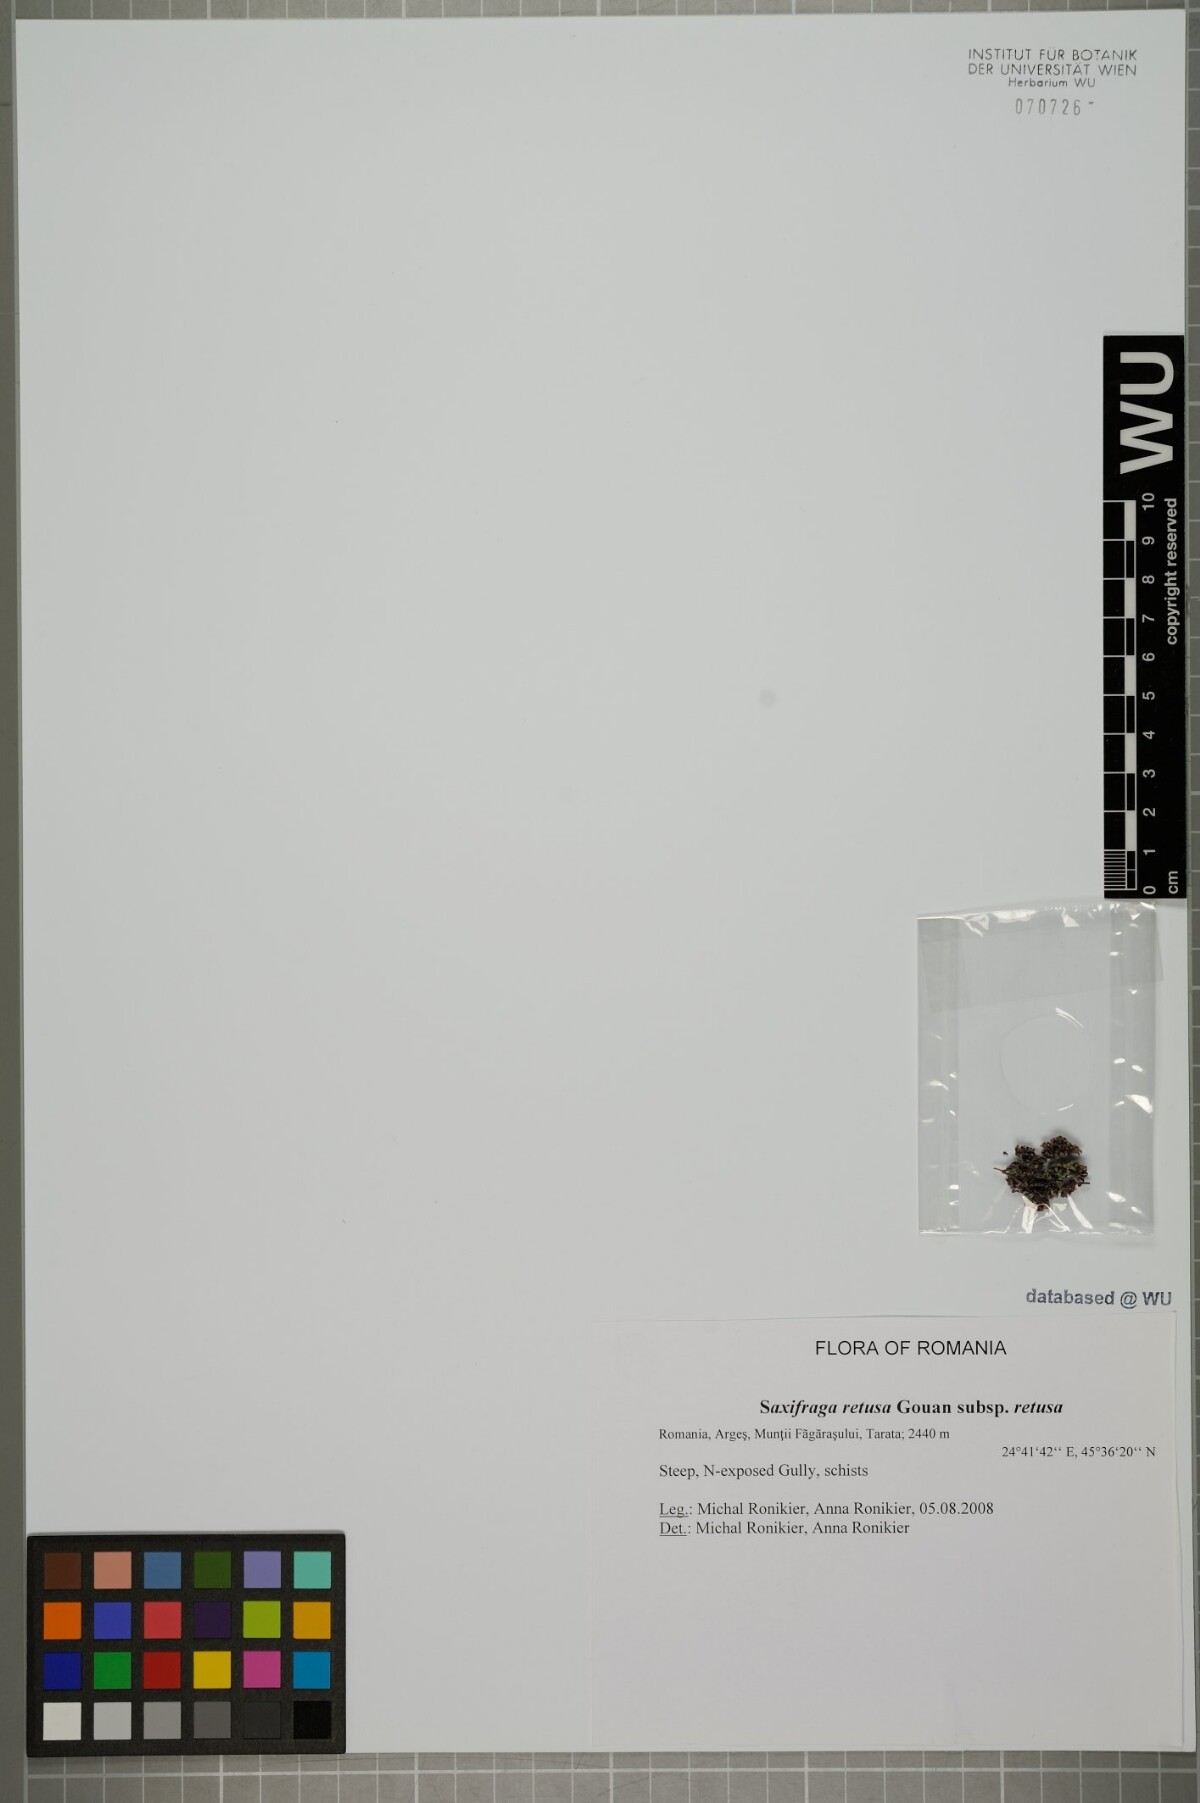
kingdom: Plantae
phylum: Tracheophyta
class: Magnoliopsida
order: Saxifragales
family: Saxifragaceae
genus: Saxifraga
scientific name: Saxifraga retusa
